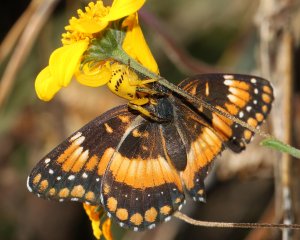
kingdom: Animalia
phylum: Arthropoda
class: Insecta
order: Lepidoptera
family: Nymphalidae
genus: Chlosyne
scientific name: Chlosyne californica
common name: California Patch
